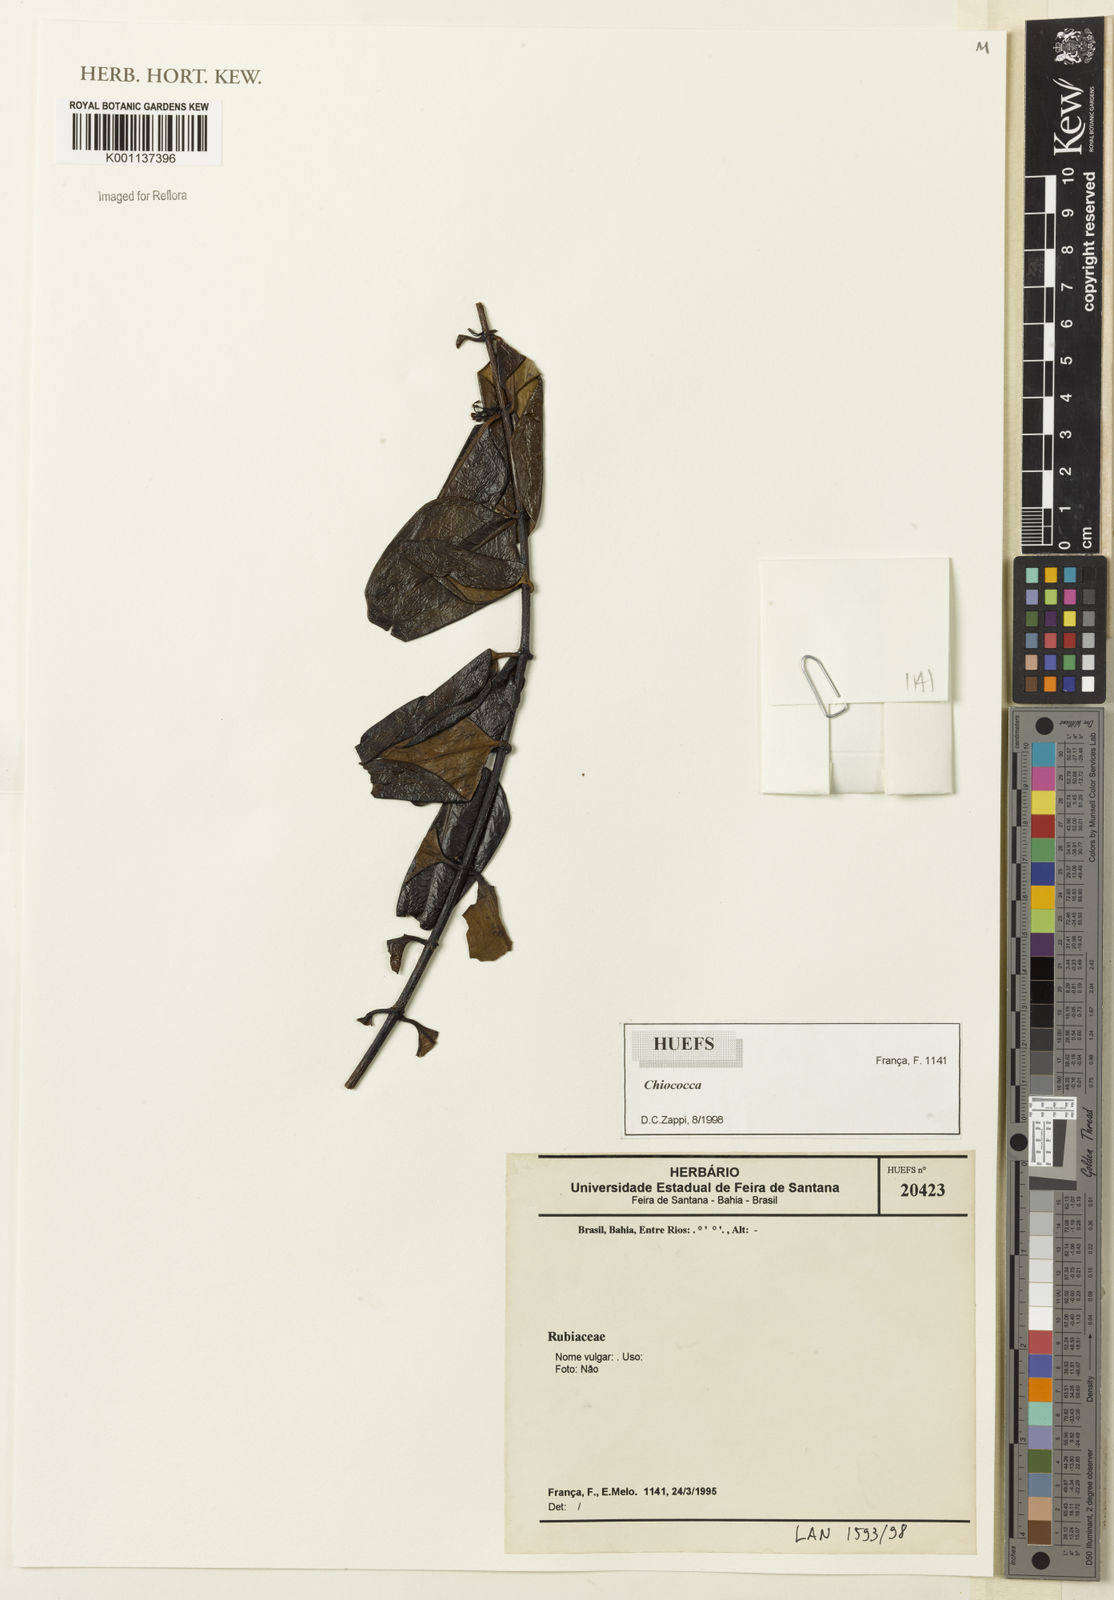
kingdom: Plantae
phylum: Tracheophyta
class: Magnoliopsida
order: Gentianales
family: Rubiaceae
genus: Chiococca
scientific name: Chiococca
